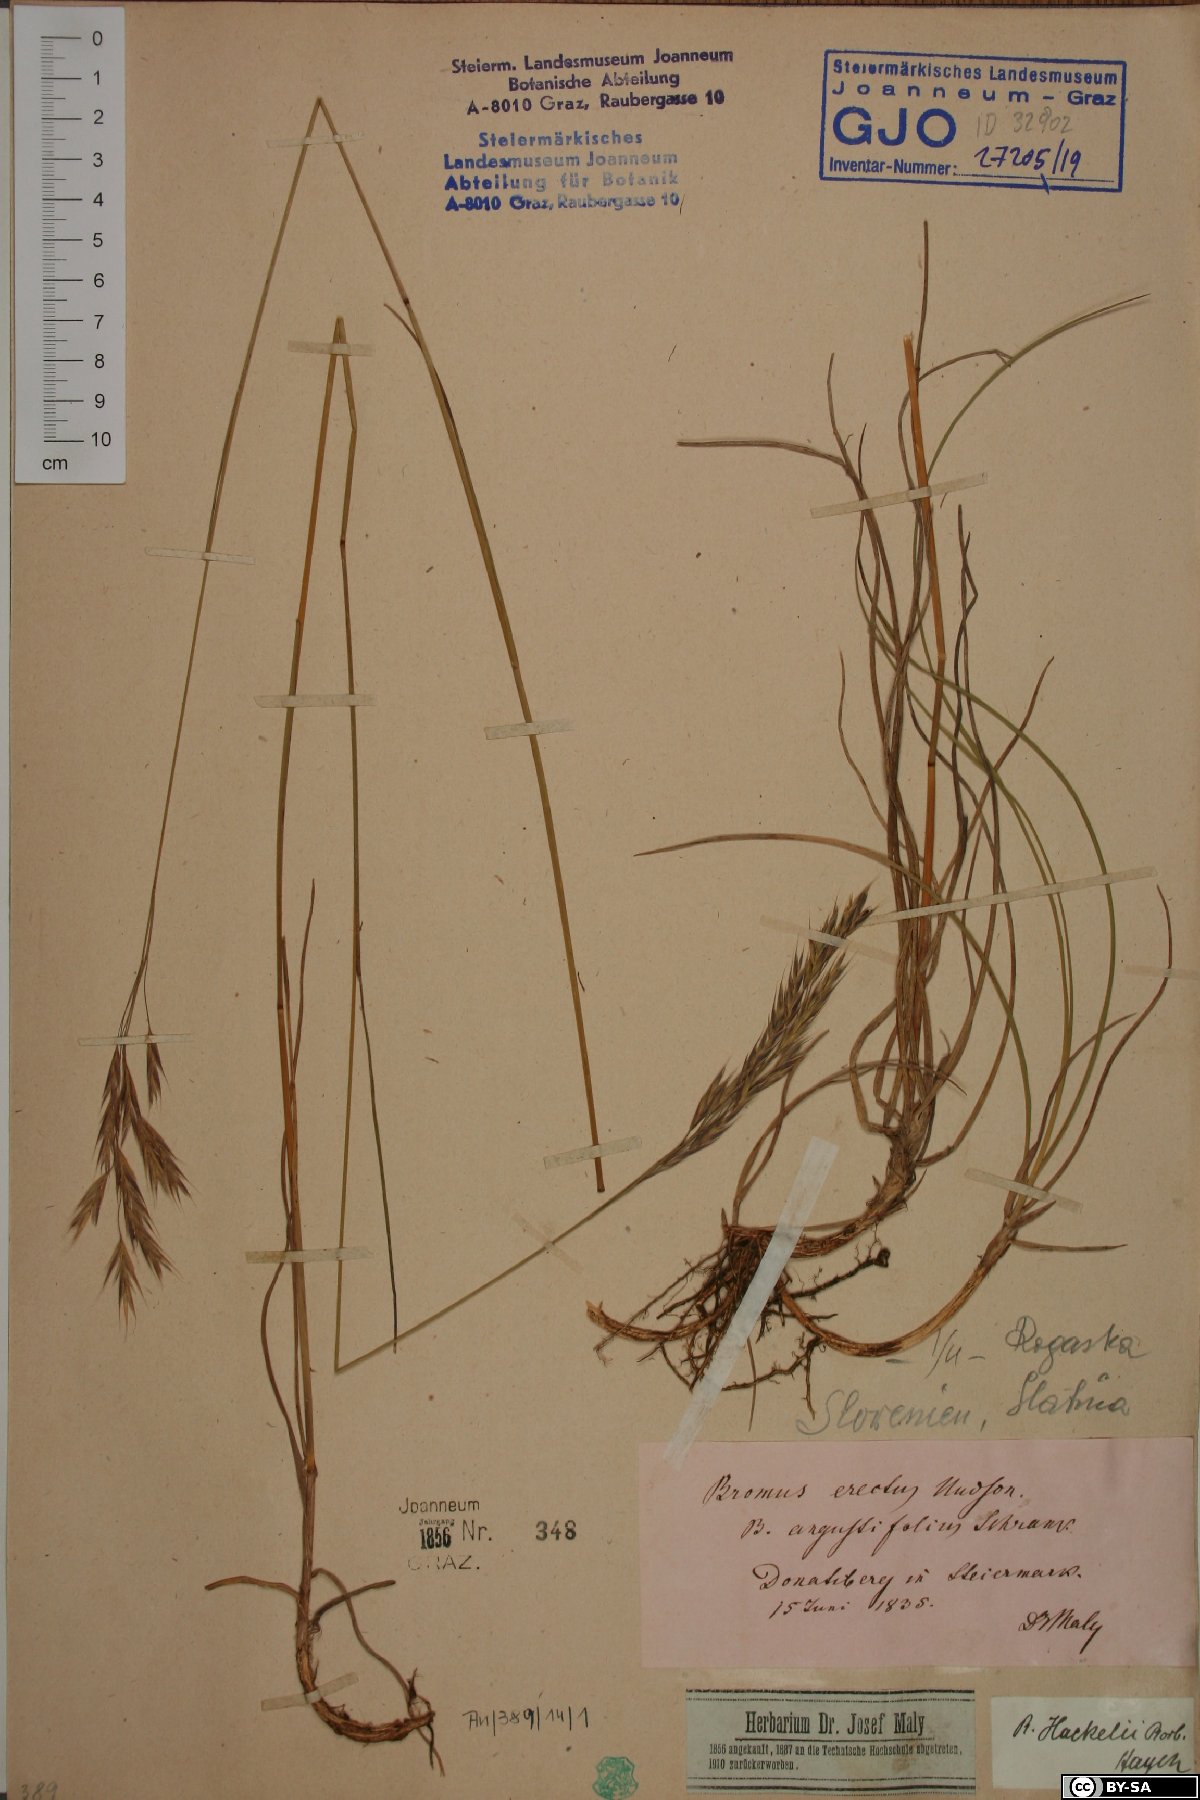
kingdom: Plantae
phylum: Tracheophyta
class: Liliopsida
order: Poales
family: Poaceae
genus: Bromus
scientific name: Bromus erectus
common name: Erect brome
